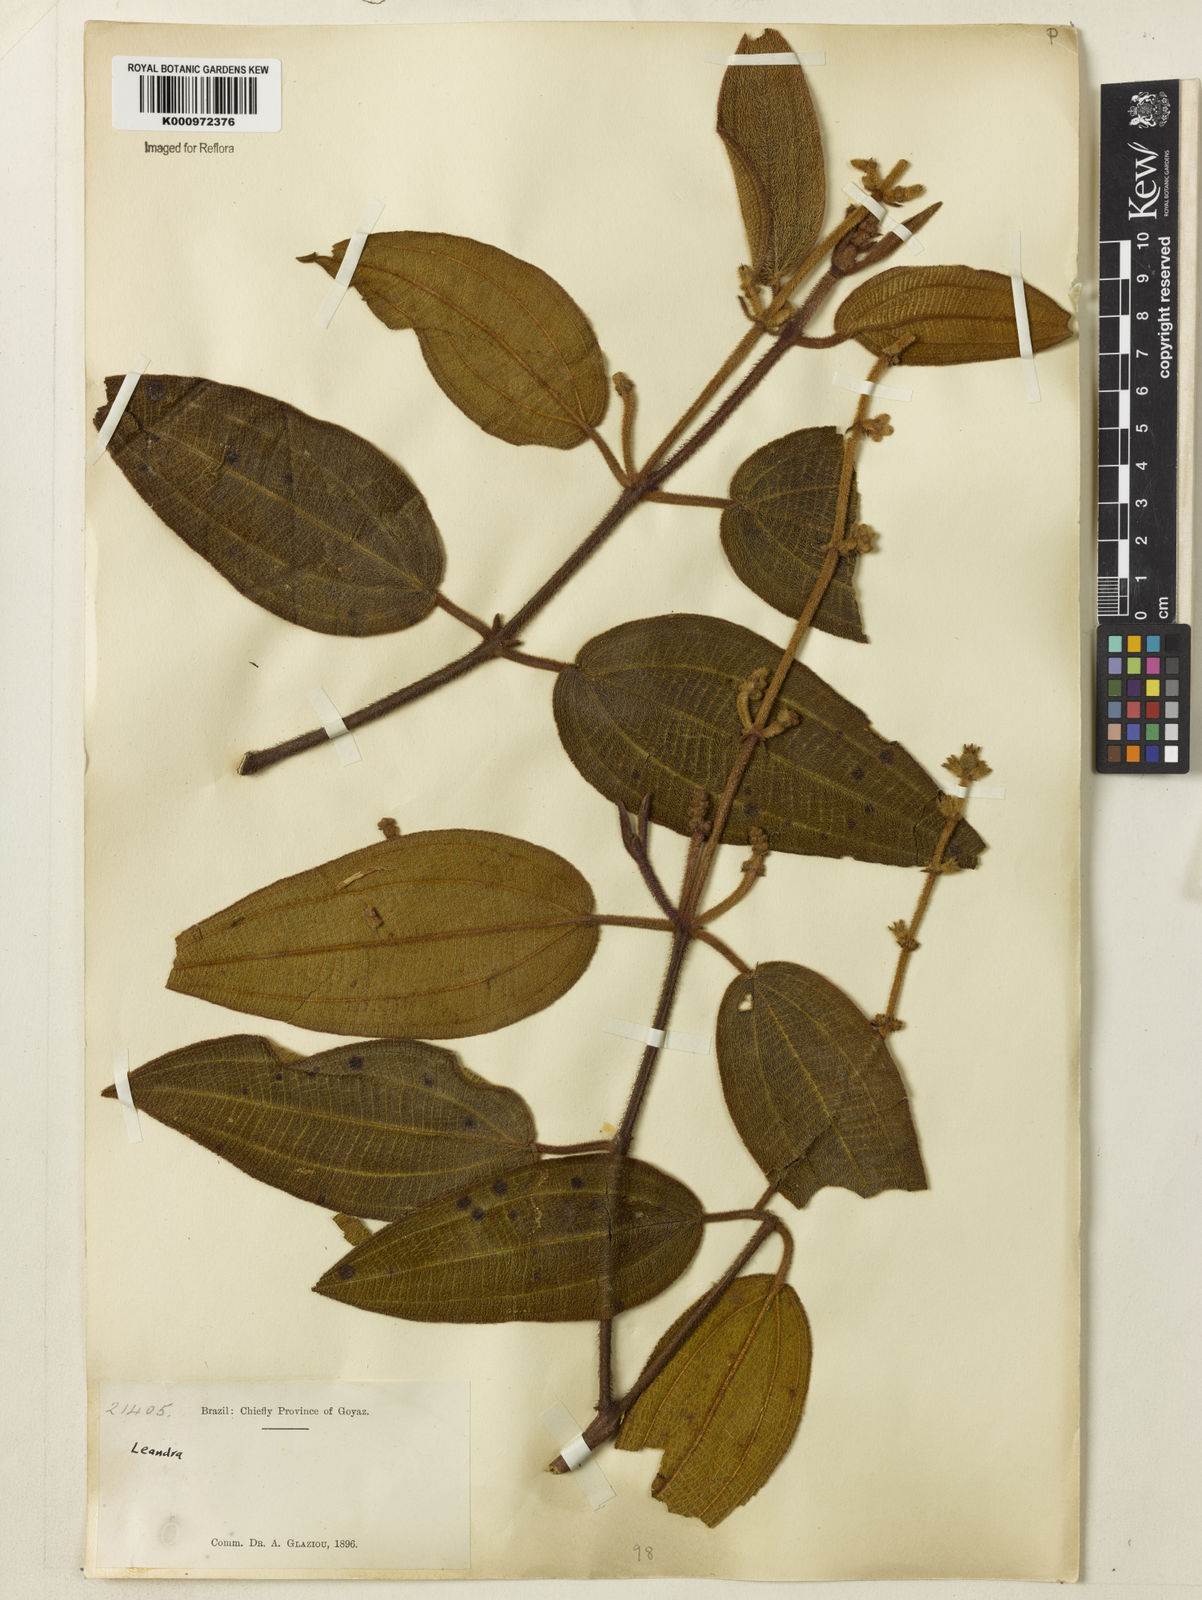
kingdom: Plantae
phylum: Tracheophyta
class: Magnoliopsida
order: Myrtales
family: Melastomataceae
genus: Miconia
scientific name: Miconia
